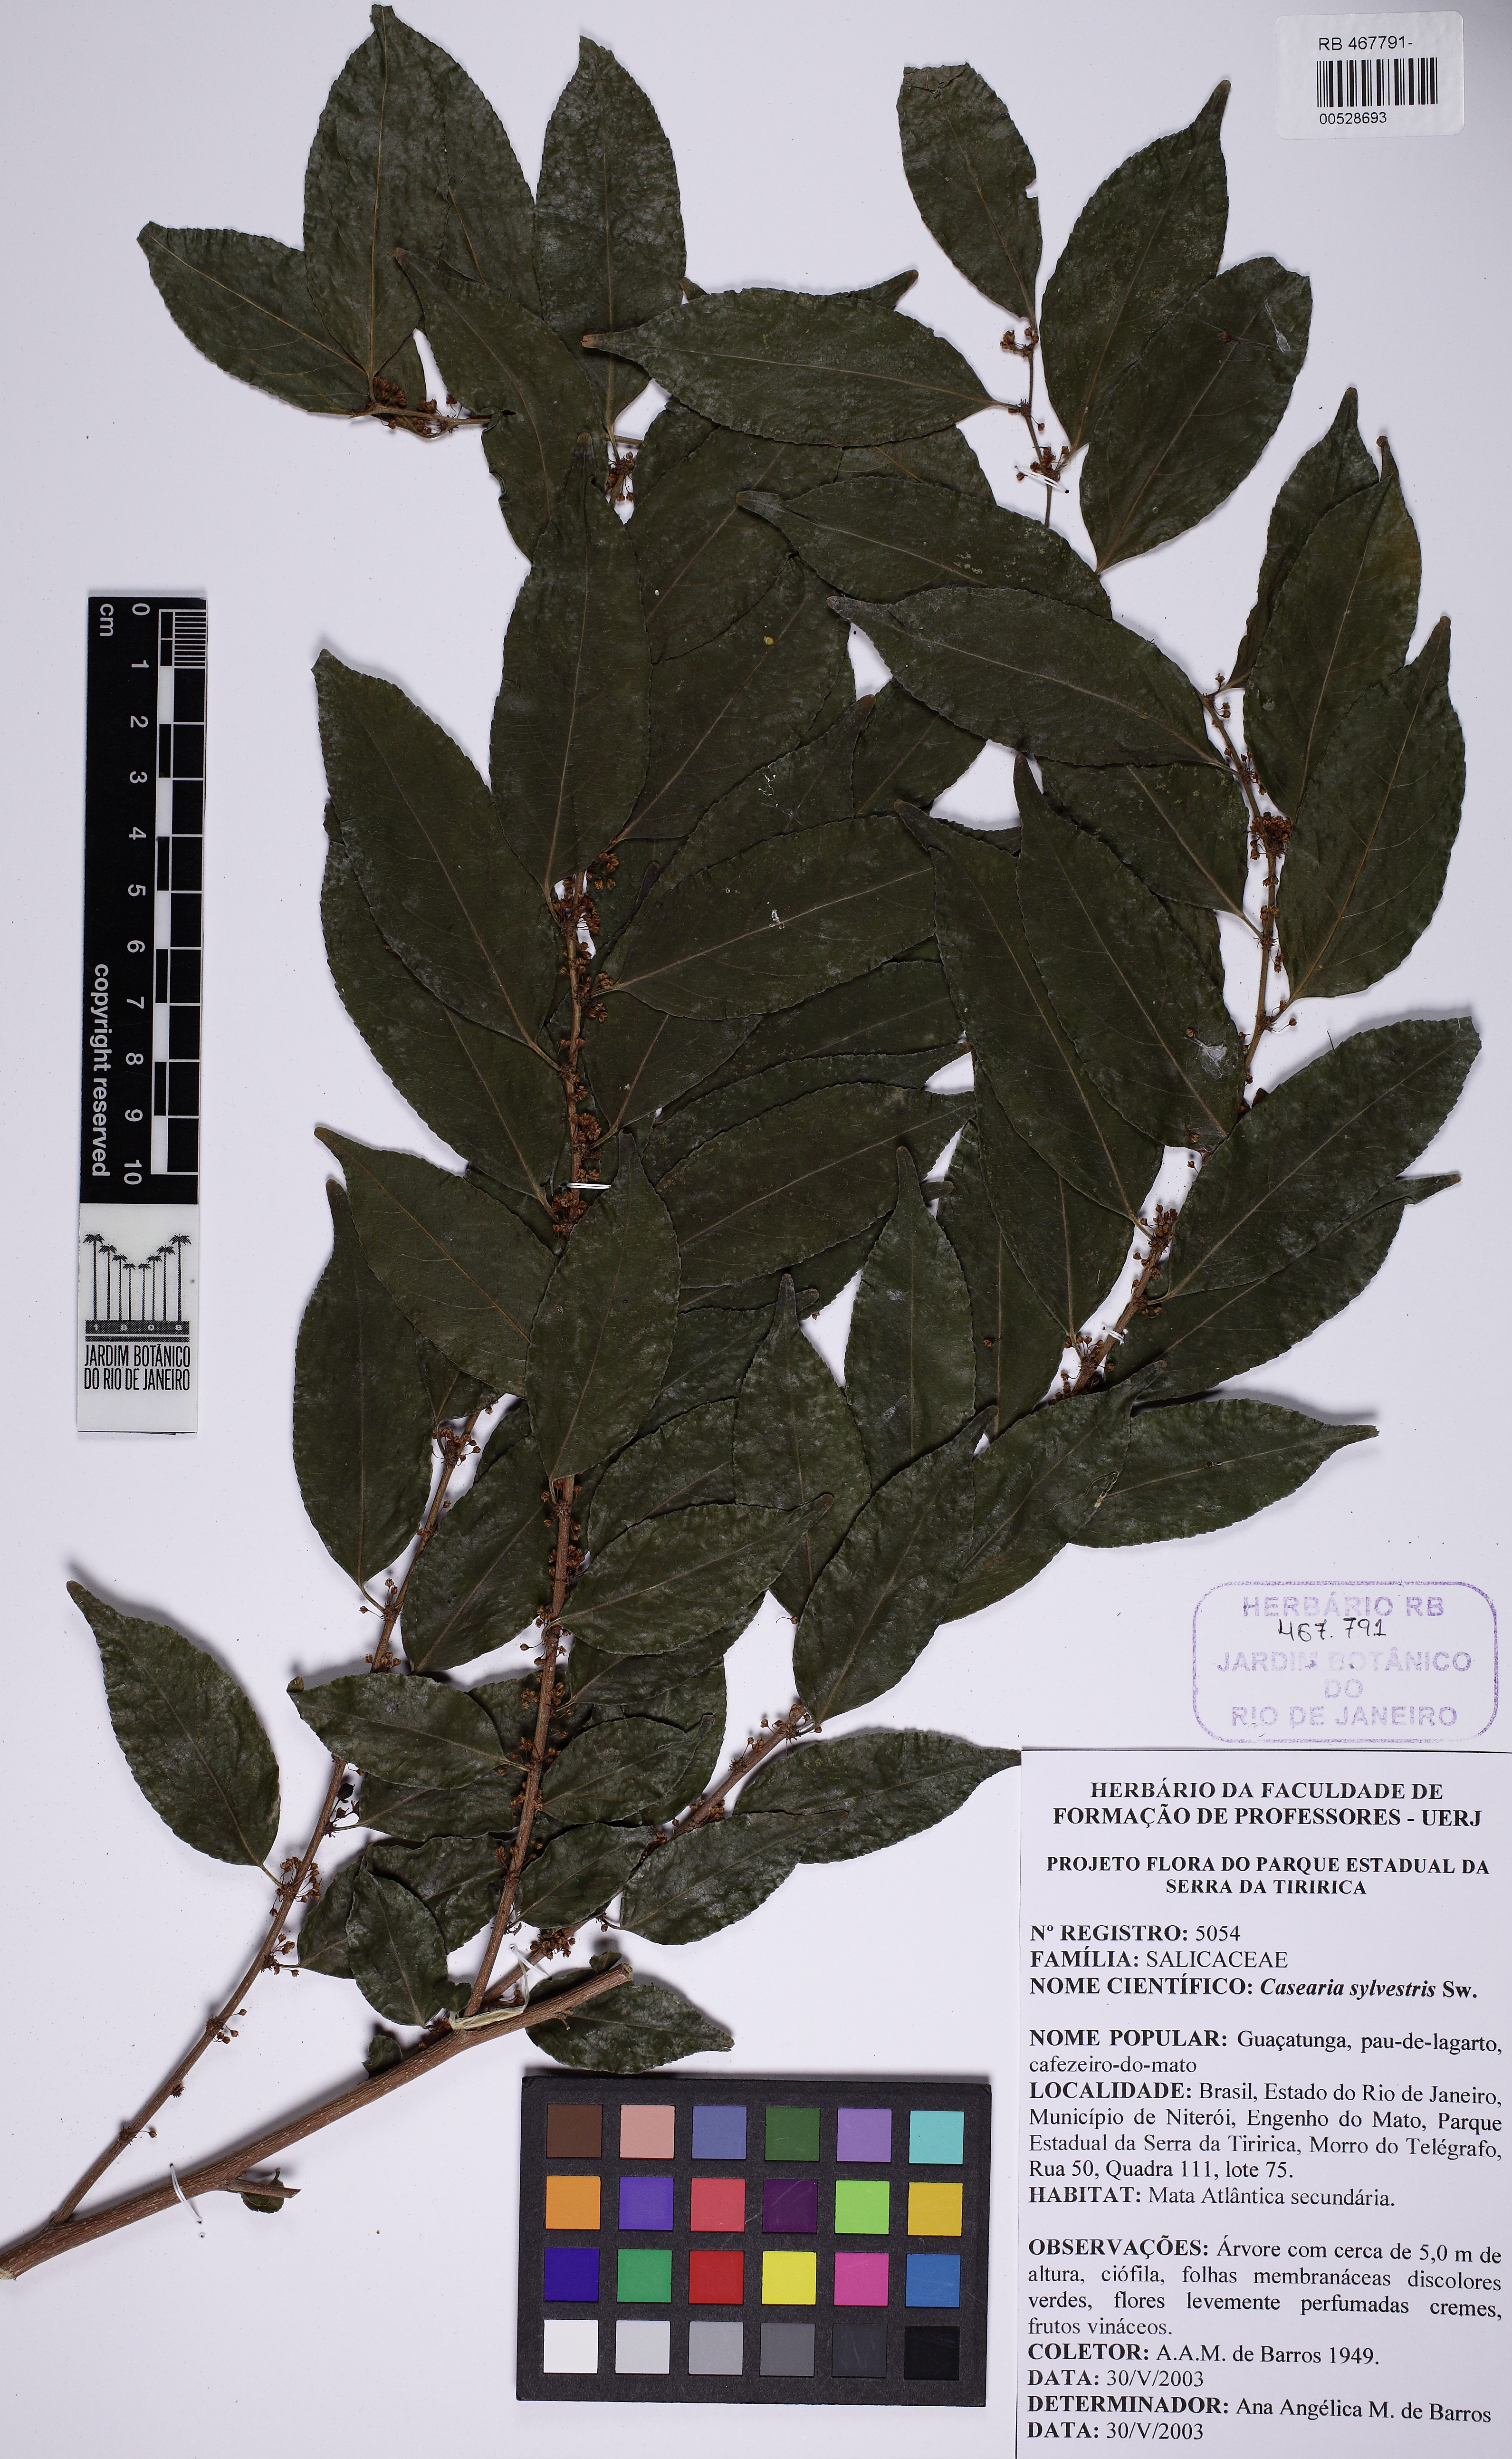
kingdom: Plantae
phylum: Tracheophyta
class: Magnoliopsida
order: Malpighiales
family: Salicaceae
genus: Casearia
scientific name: Casearia sylvestris
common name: Wild sage
